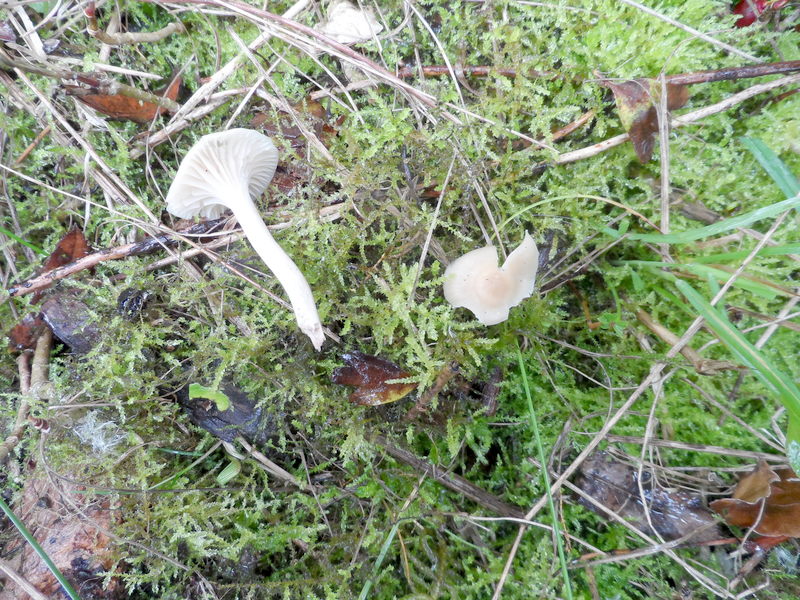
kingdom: Fungi
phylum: Basidiomycota
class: Agaricomycetes
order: Agaricales
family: Hygrophoraceae
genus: Cuphophyllus
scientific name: Cuphophyllus virgineus
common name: Snowy waxcap
